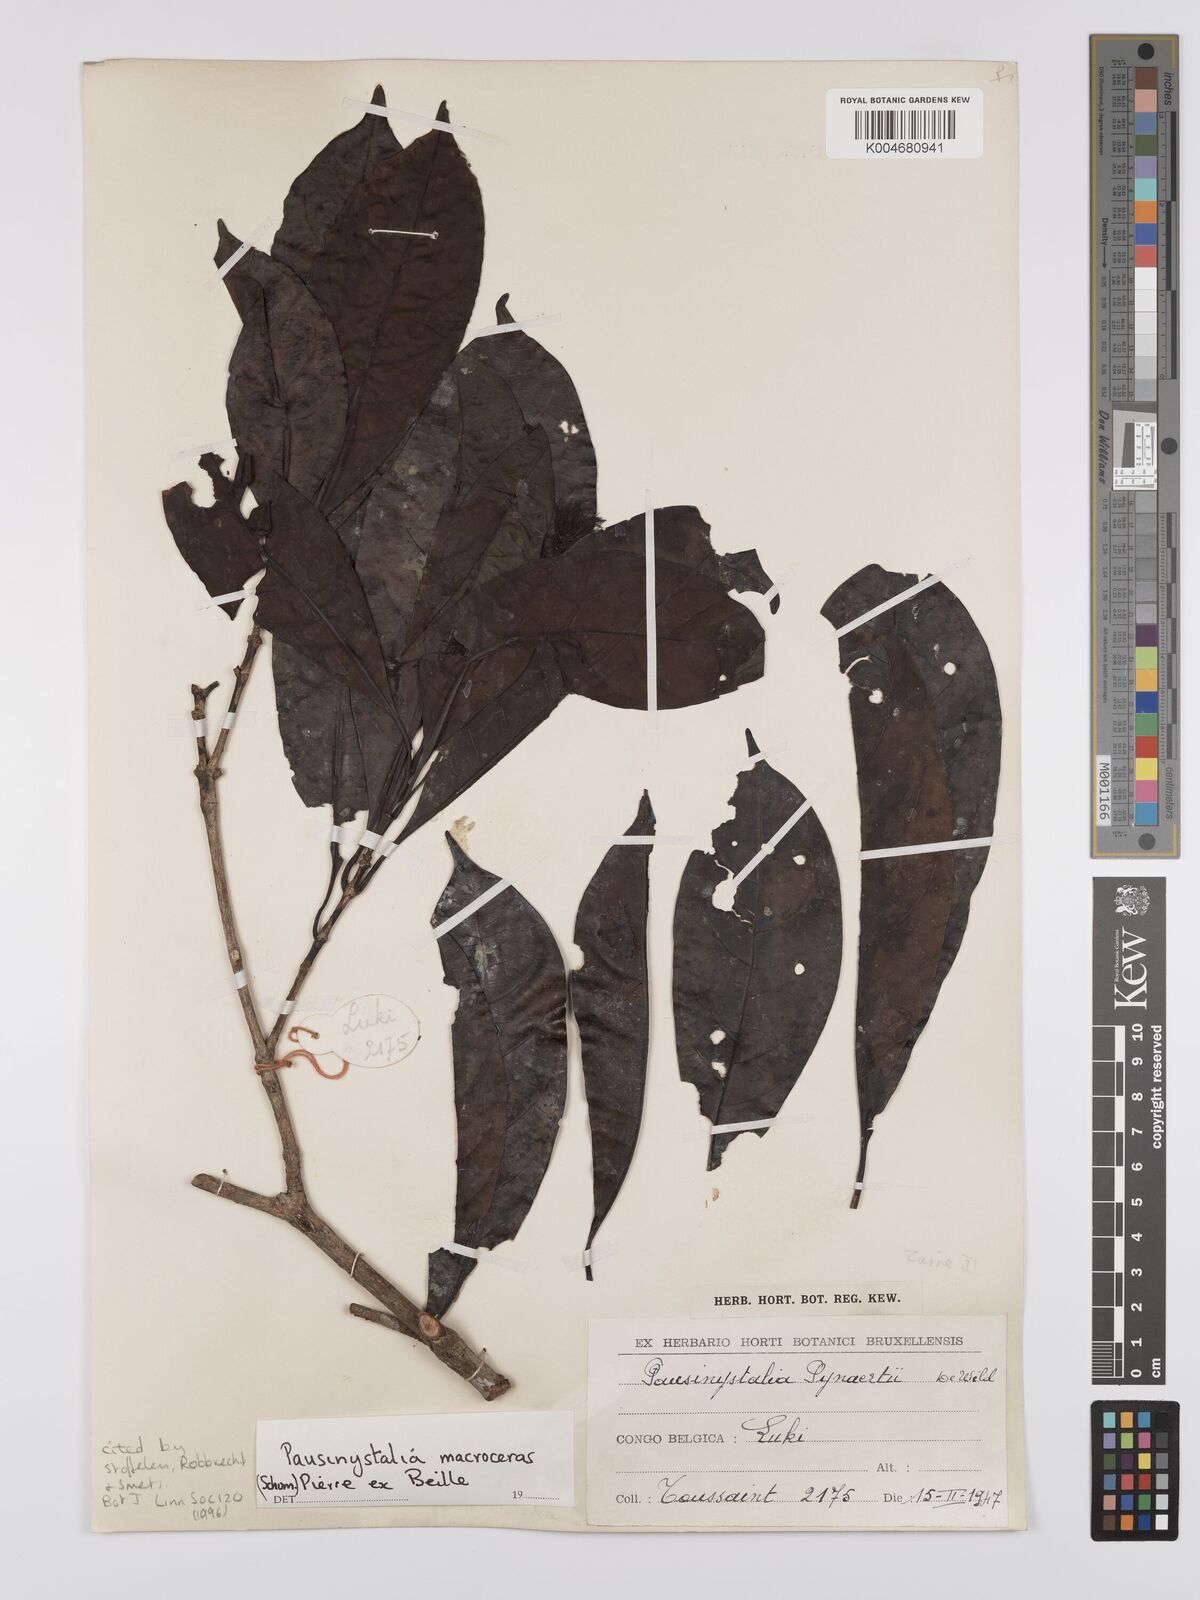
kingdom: Plantae
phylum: Tracheophyta
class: Magnoliopsida
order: Gentianales
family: Rubiaceae
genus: Corynanthe
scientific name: Corynanthe macroceras
